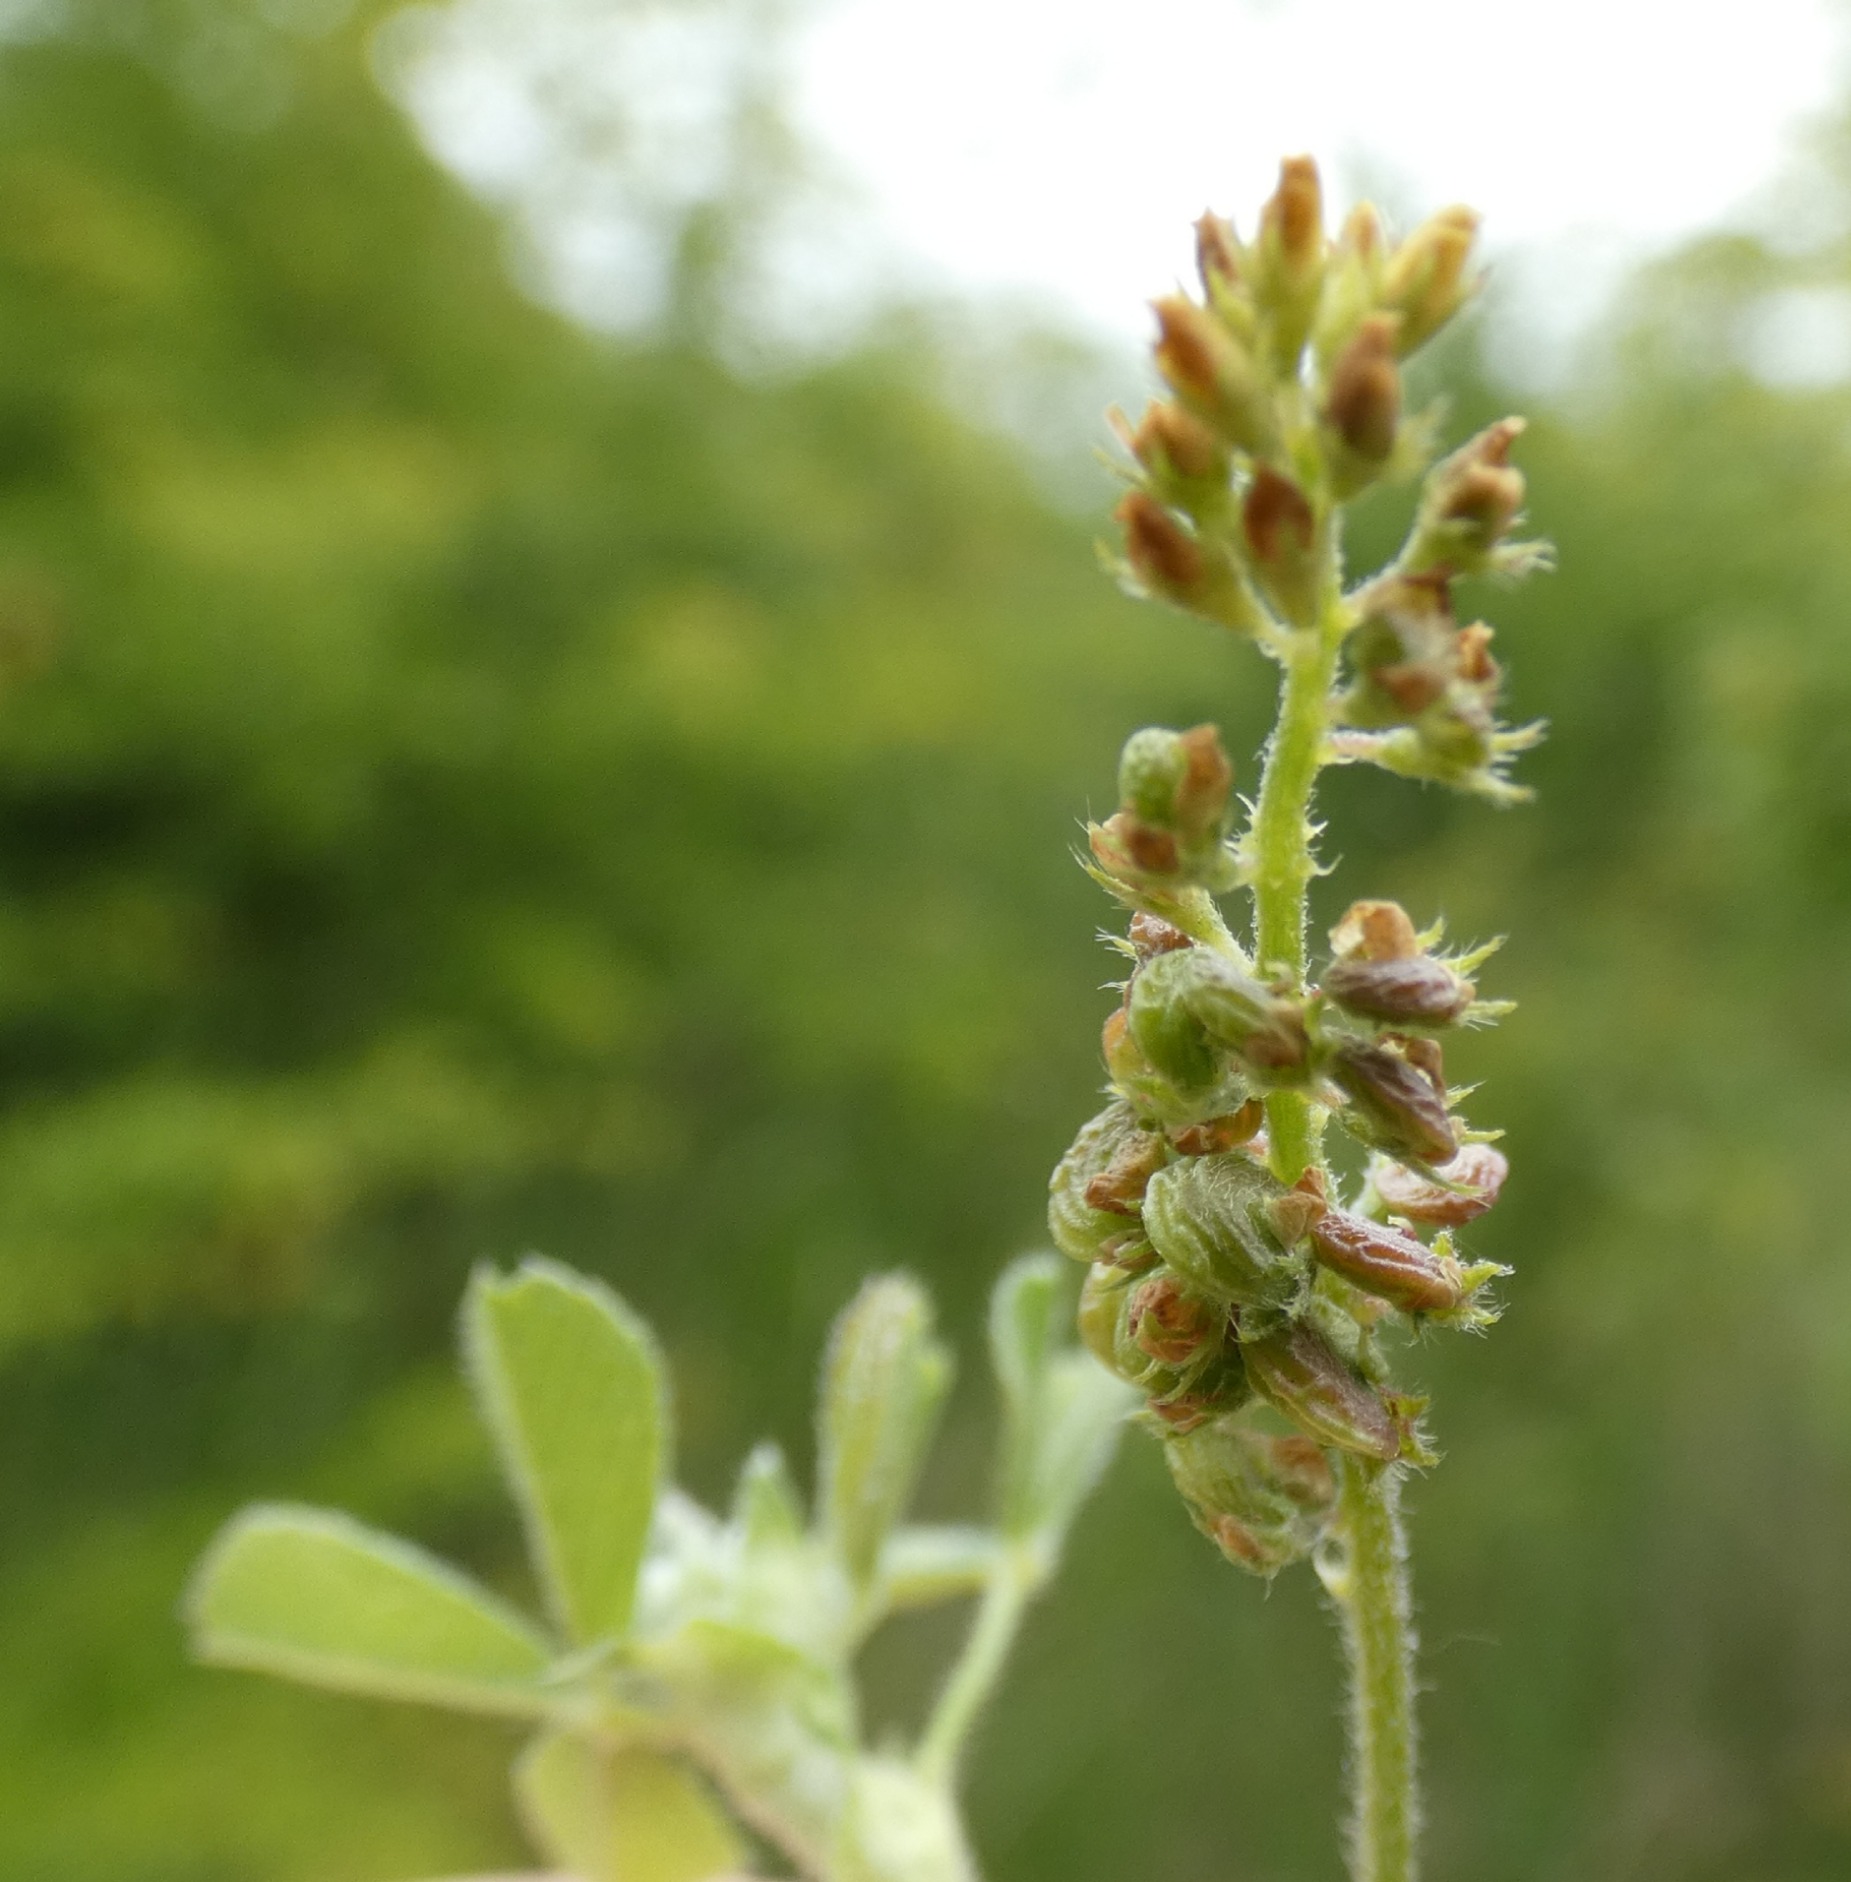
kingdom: Plantae
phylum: Tracheophyta
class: Magnoliopsida
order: Fabales
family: Fabaceae
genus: Medicago
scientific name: Medicago lupulina
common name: Humle-sneglebælg
